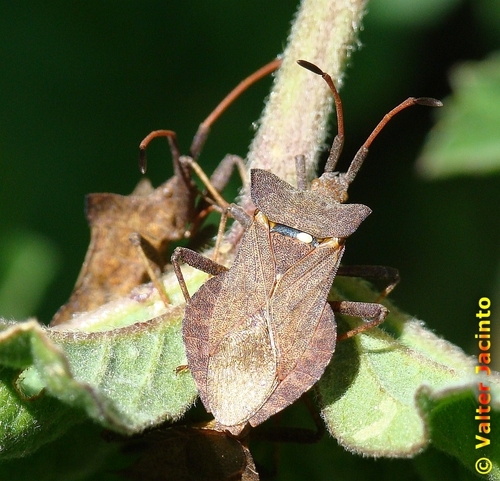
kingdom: Animalia
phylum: Arthropoda
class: Insecta
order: Hemiptera
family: Coreidae
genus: Coreus
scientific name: Coreus marginatus
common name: Dock bug
